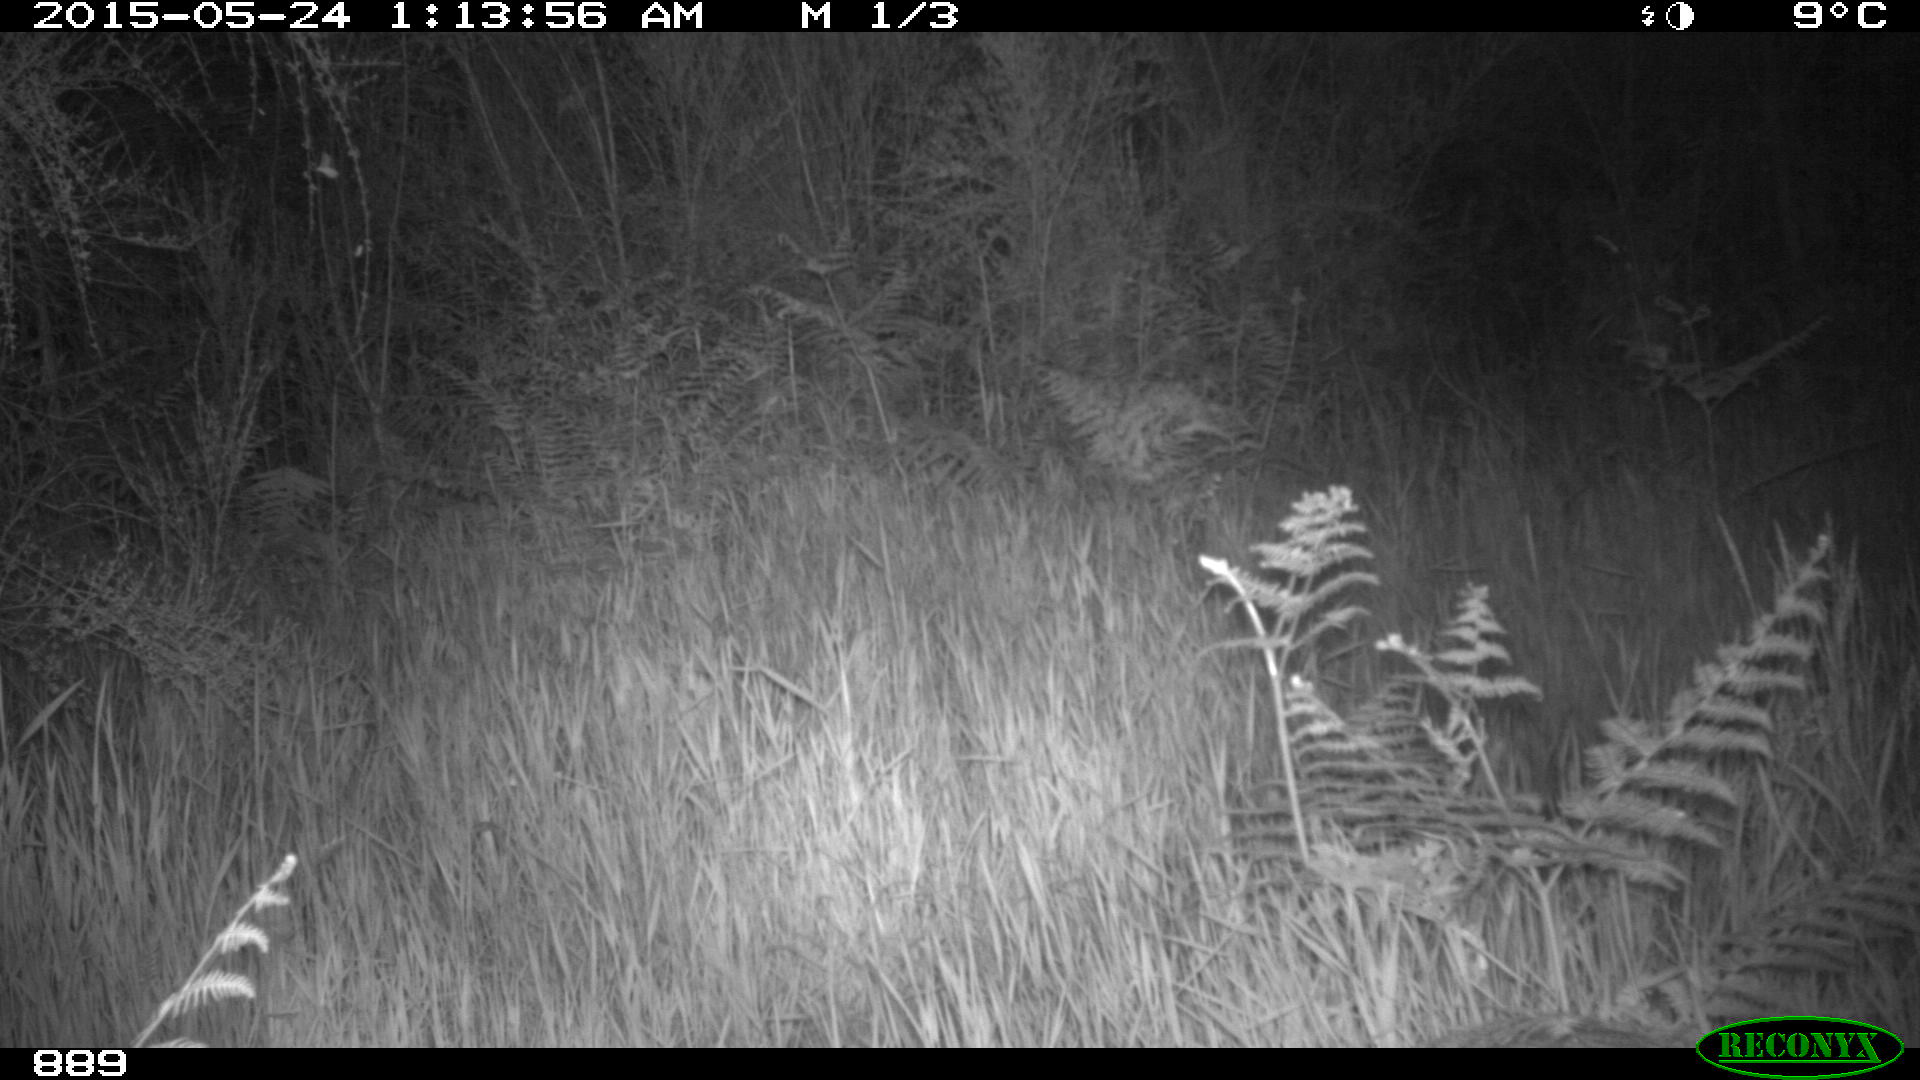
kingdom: Animalia
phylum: Chordata
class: Mammalia
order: Artiodactyla
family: Suidae
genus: Sus
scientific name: Sus scrofa
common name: Wild boar
